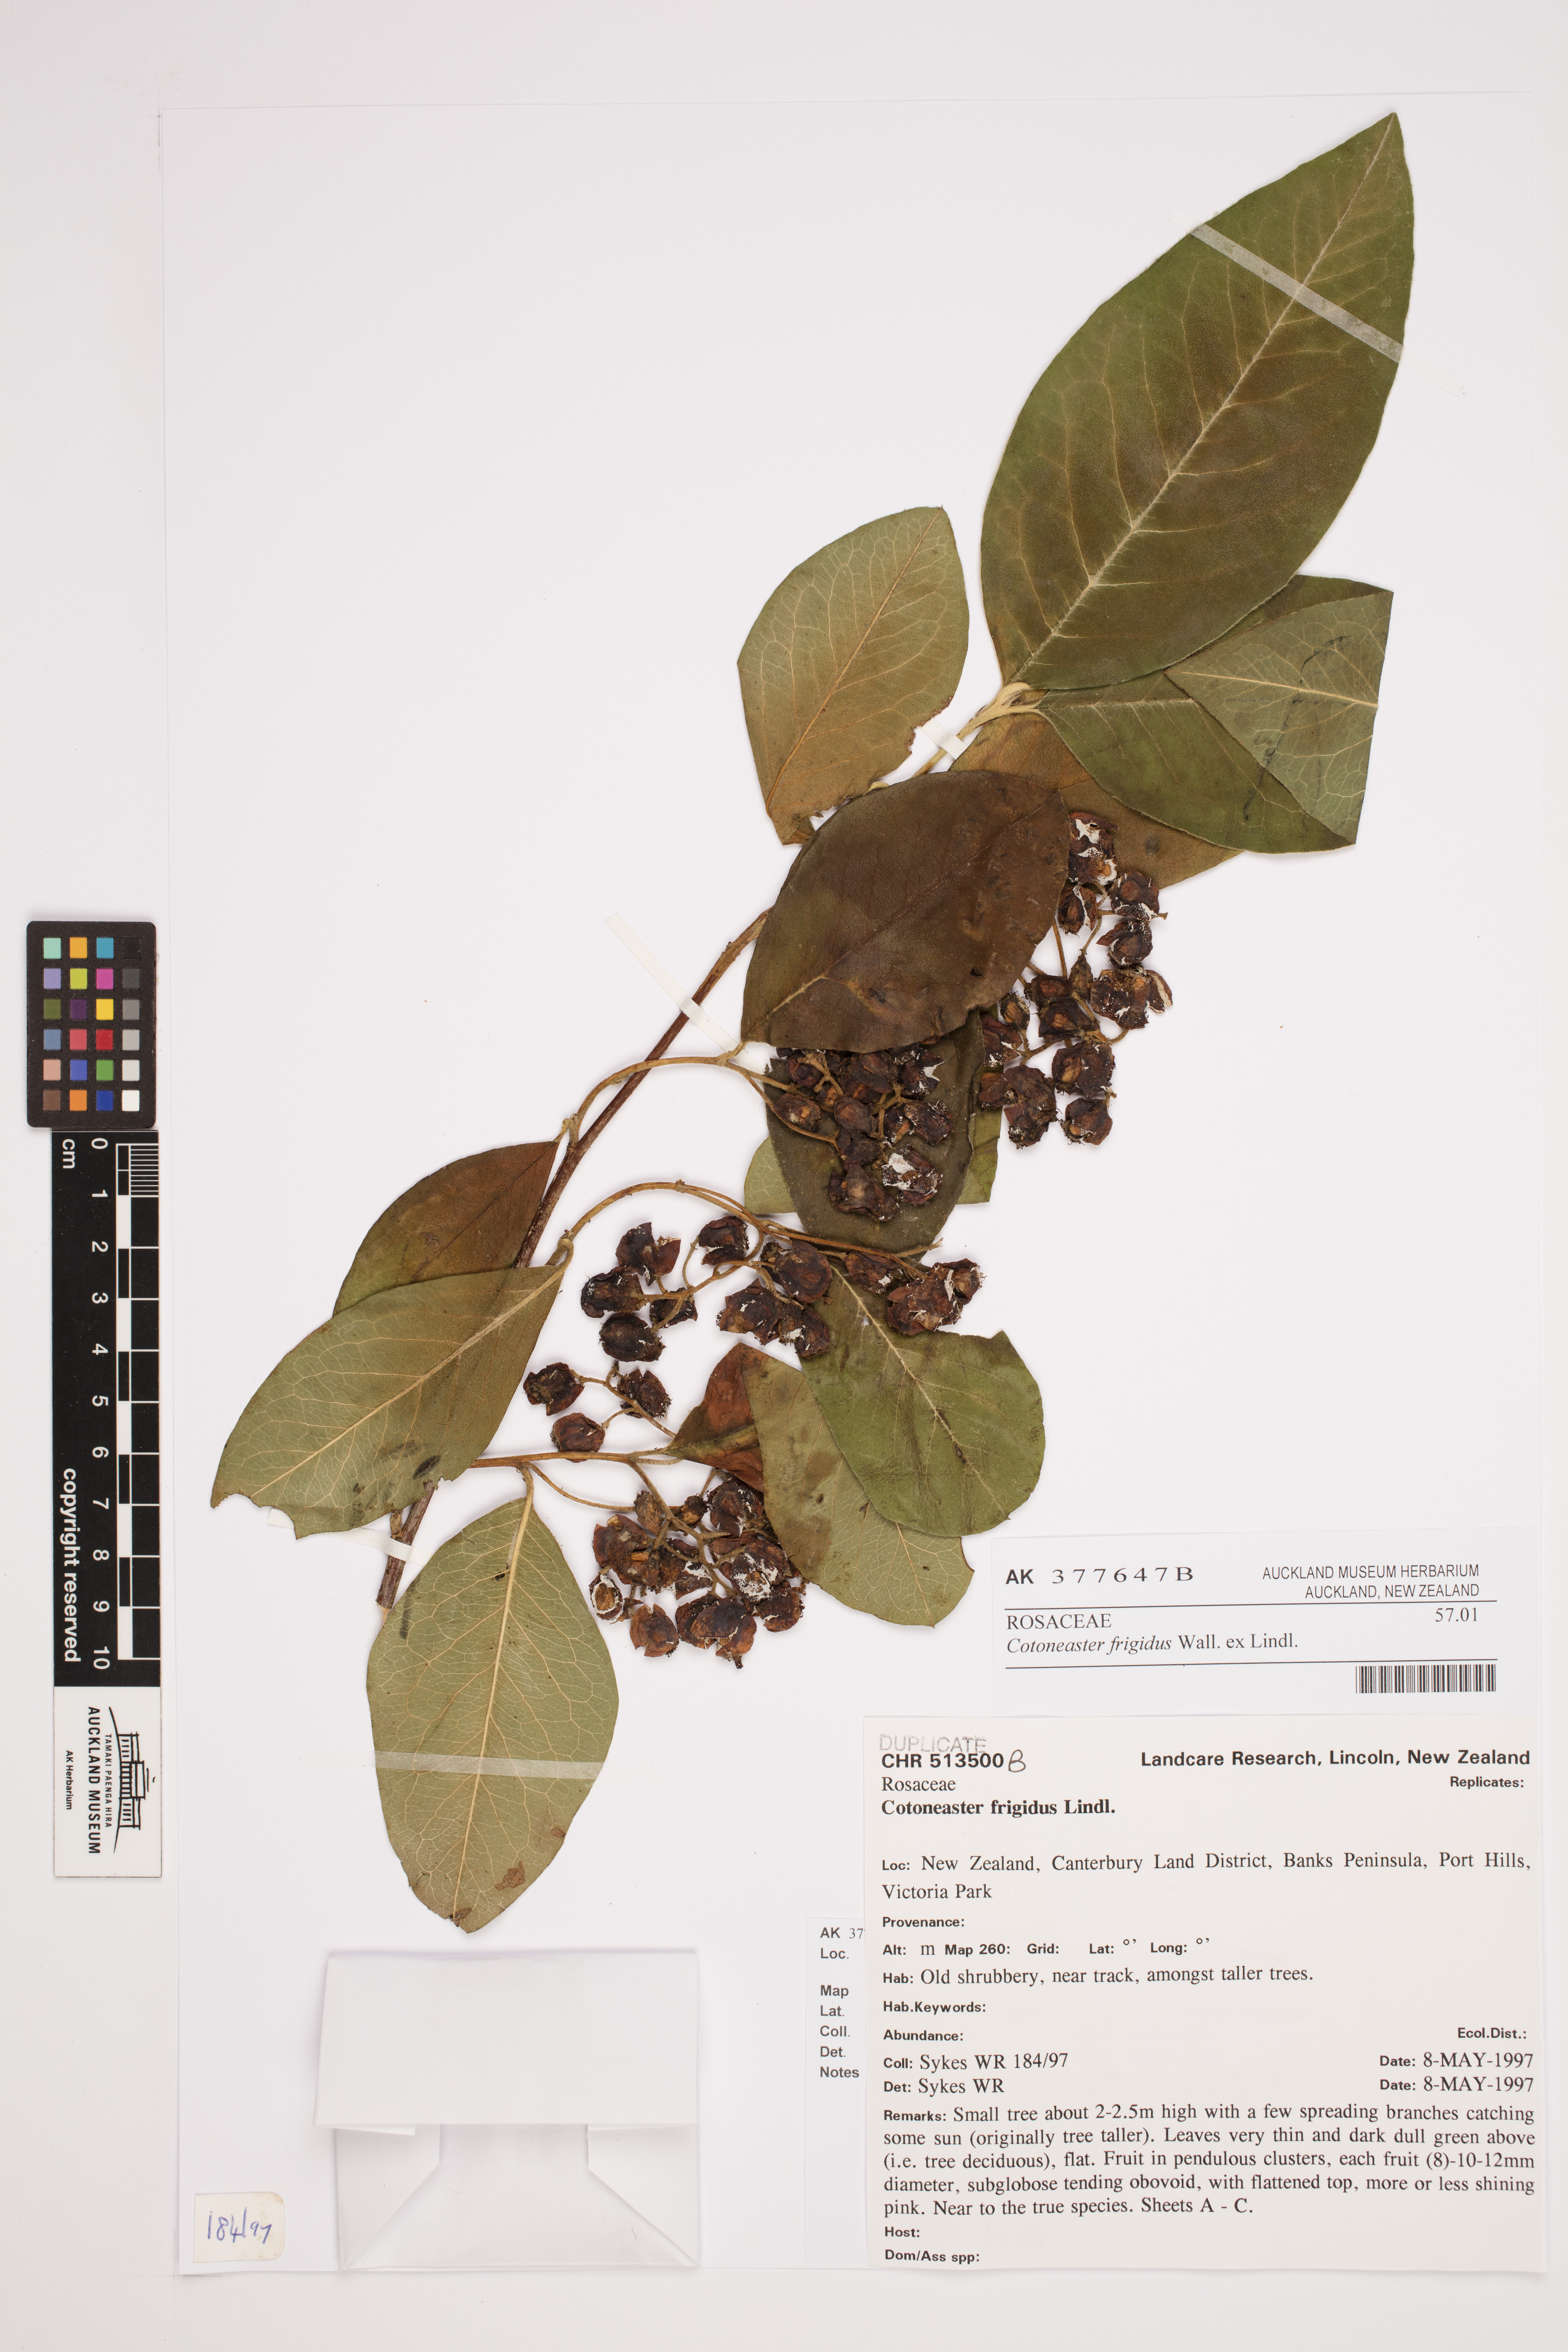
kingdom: Plantae
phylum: Tracheophyta
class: Magnoliopsida
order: Rosales
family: Rosaceae
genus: Cotoneaster
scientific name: Cotoneaster frigidus
